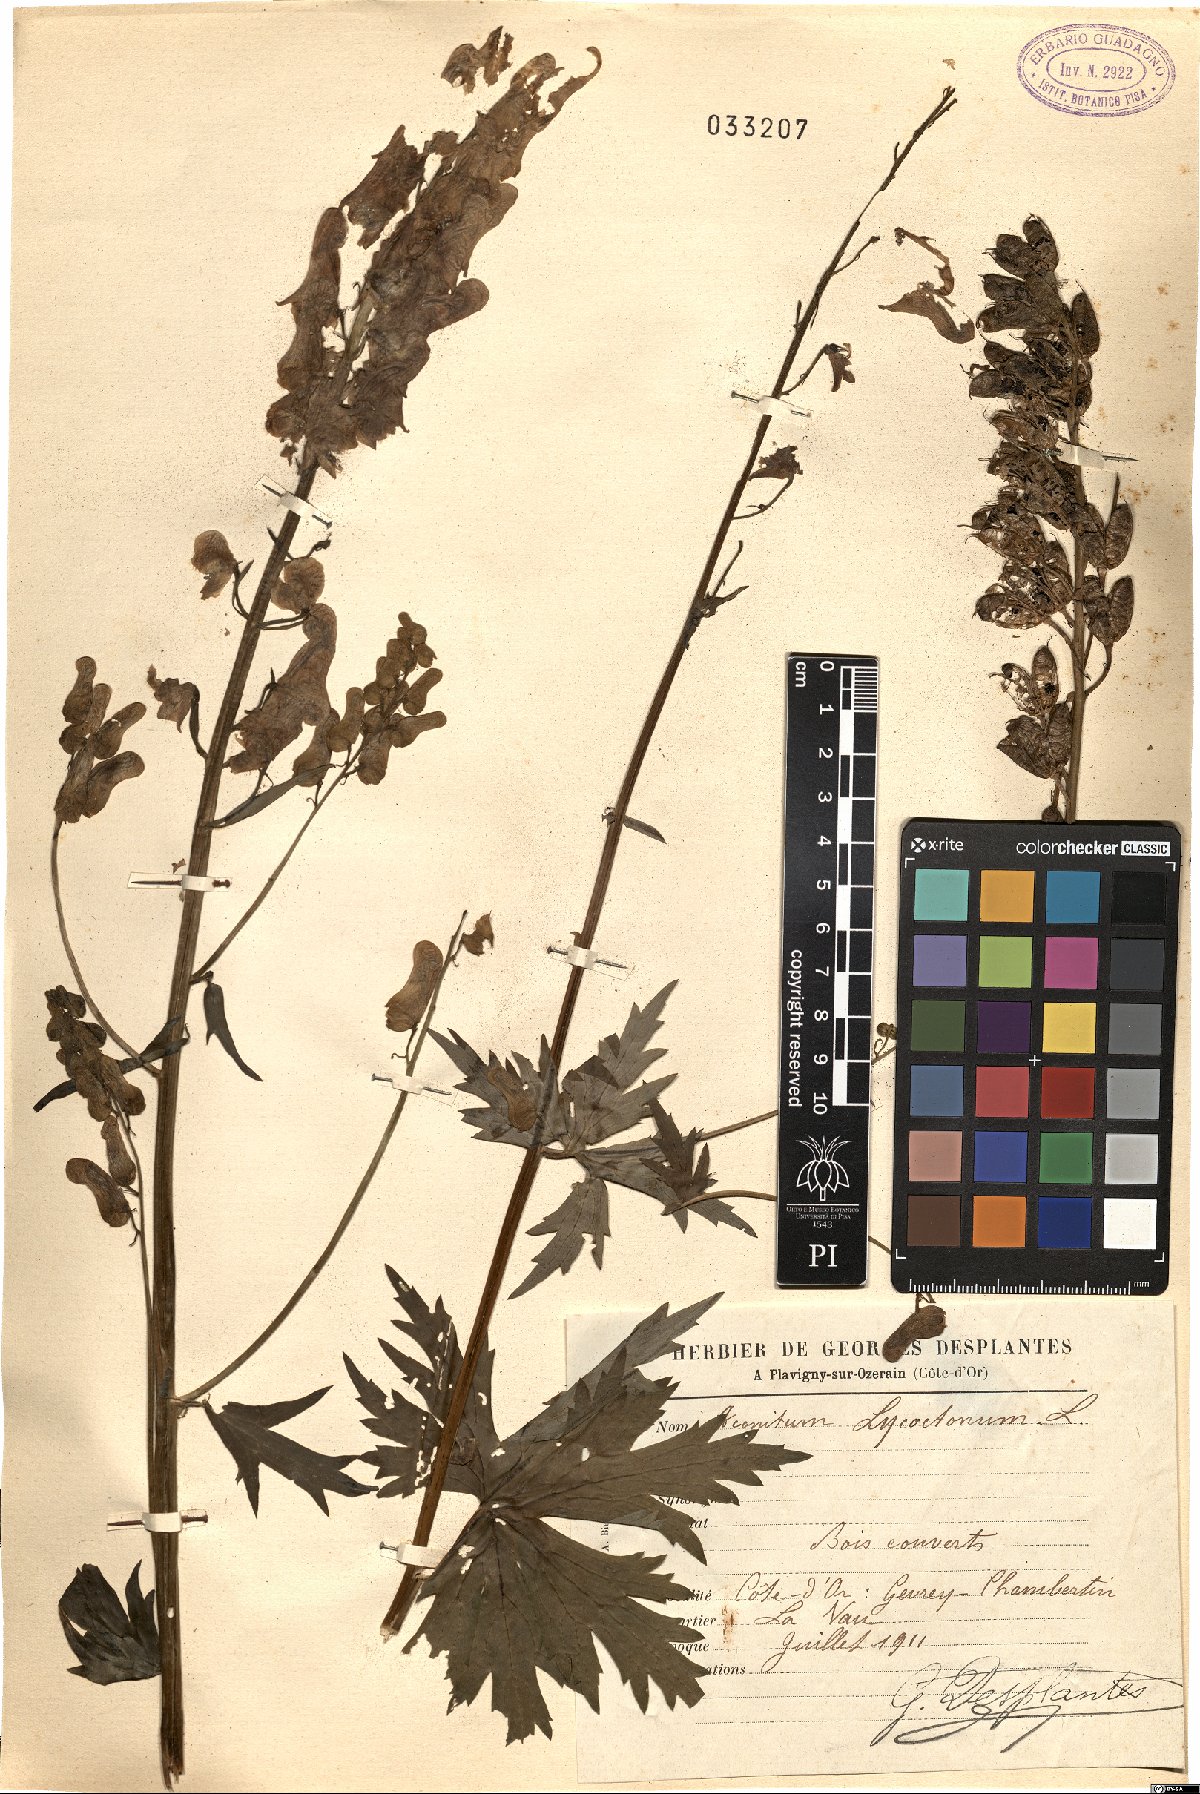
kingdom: Plantae
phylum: Tracheophyta
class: Magnoliopsida
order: Ranunculales
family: Ranunculaceae
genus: Aconitum
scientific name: Aconitum lycoctonum
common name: Wolf's-bane
